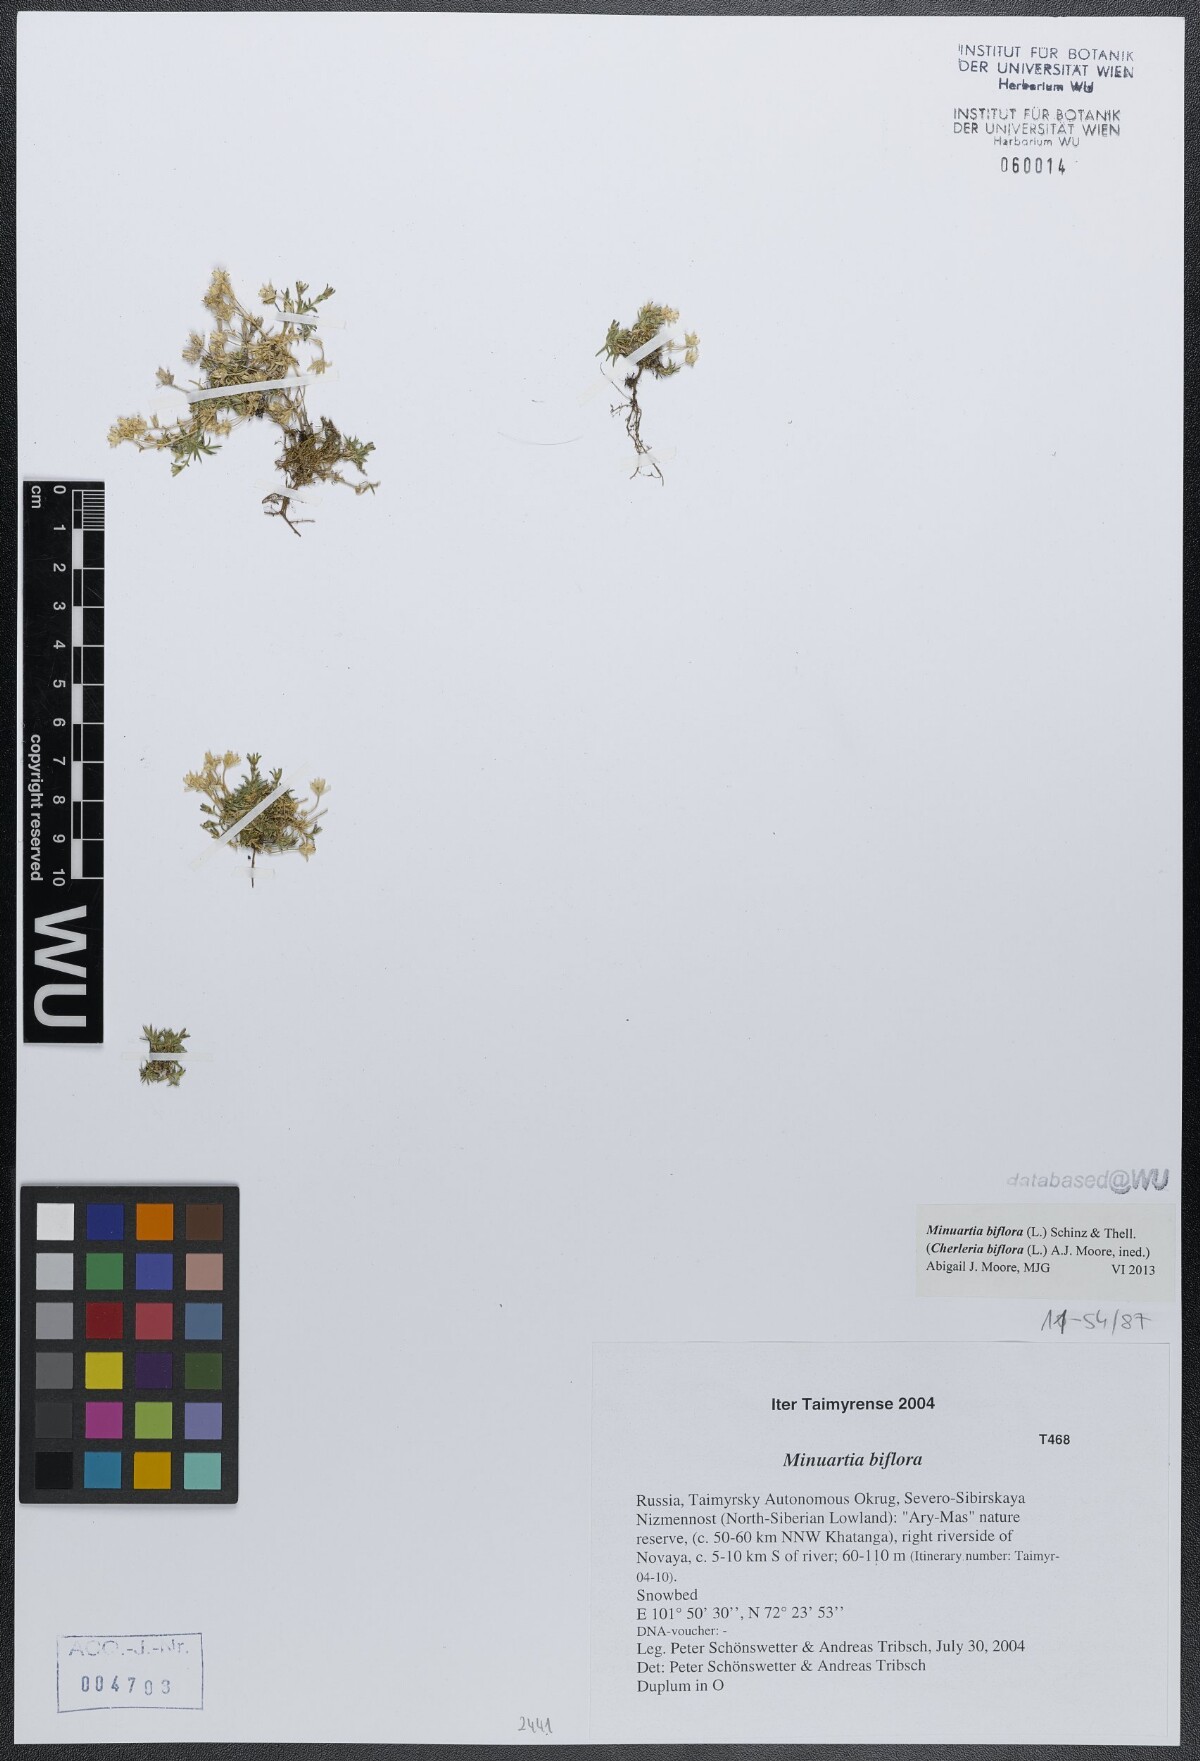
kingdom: Plantae
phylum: Tracheophyta
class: Magnoliopsida
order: Caryophyllales
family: Caryophyllaceae
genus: Cherleria
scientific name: Cherleria biflora
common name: Mountain sandwort
